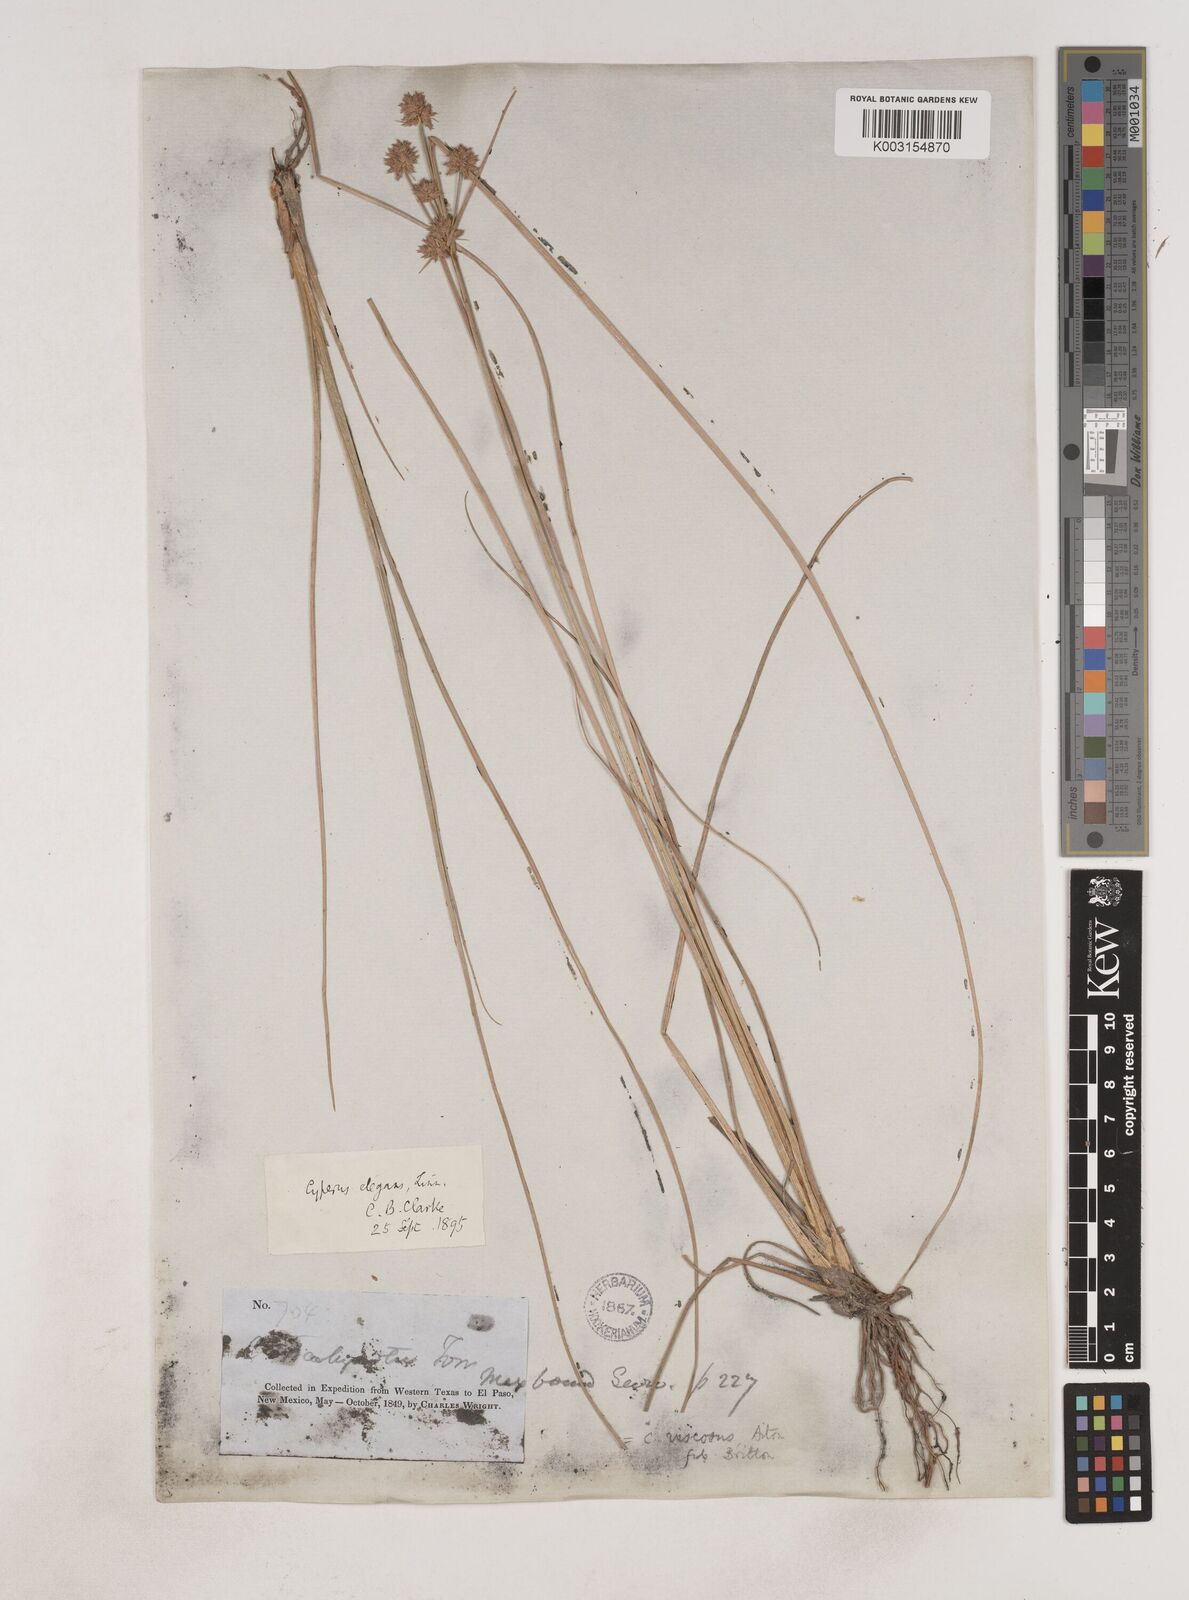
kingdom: Plantae
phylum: Tracheophyta
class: Liliopsida
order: Poales
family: Cyperaceae
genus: Cyperus
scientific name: Cyperus elegans
